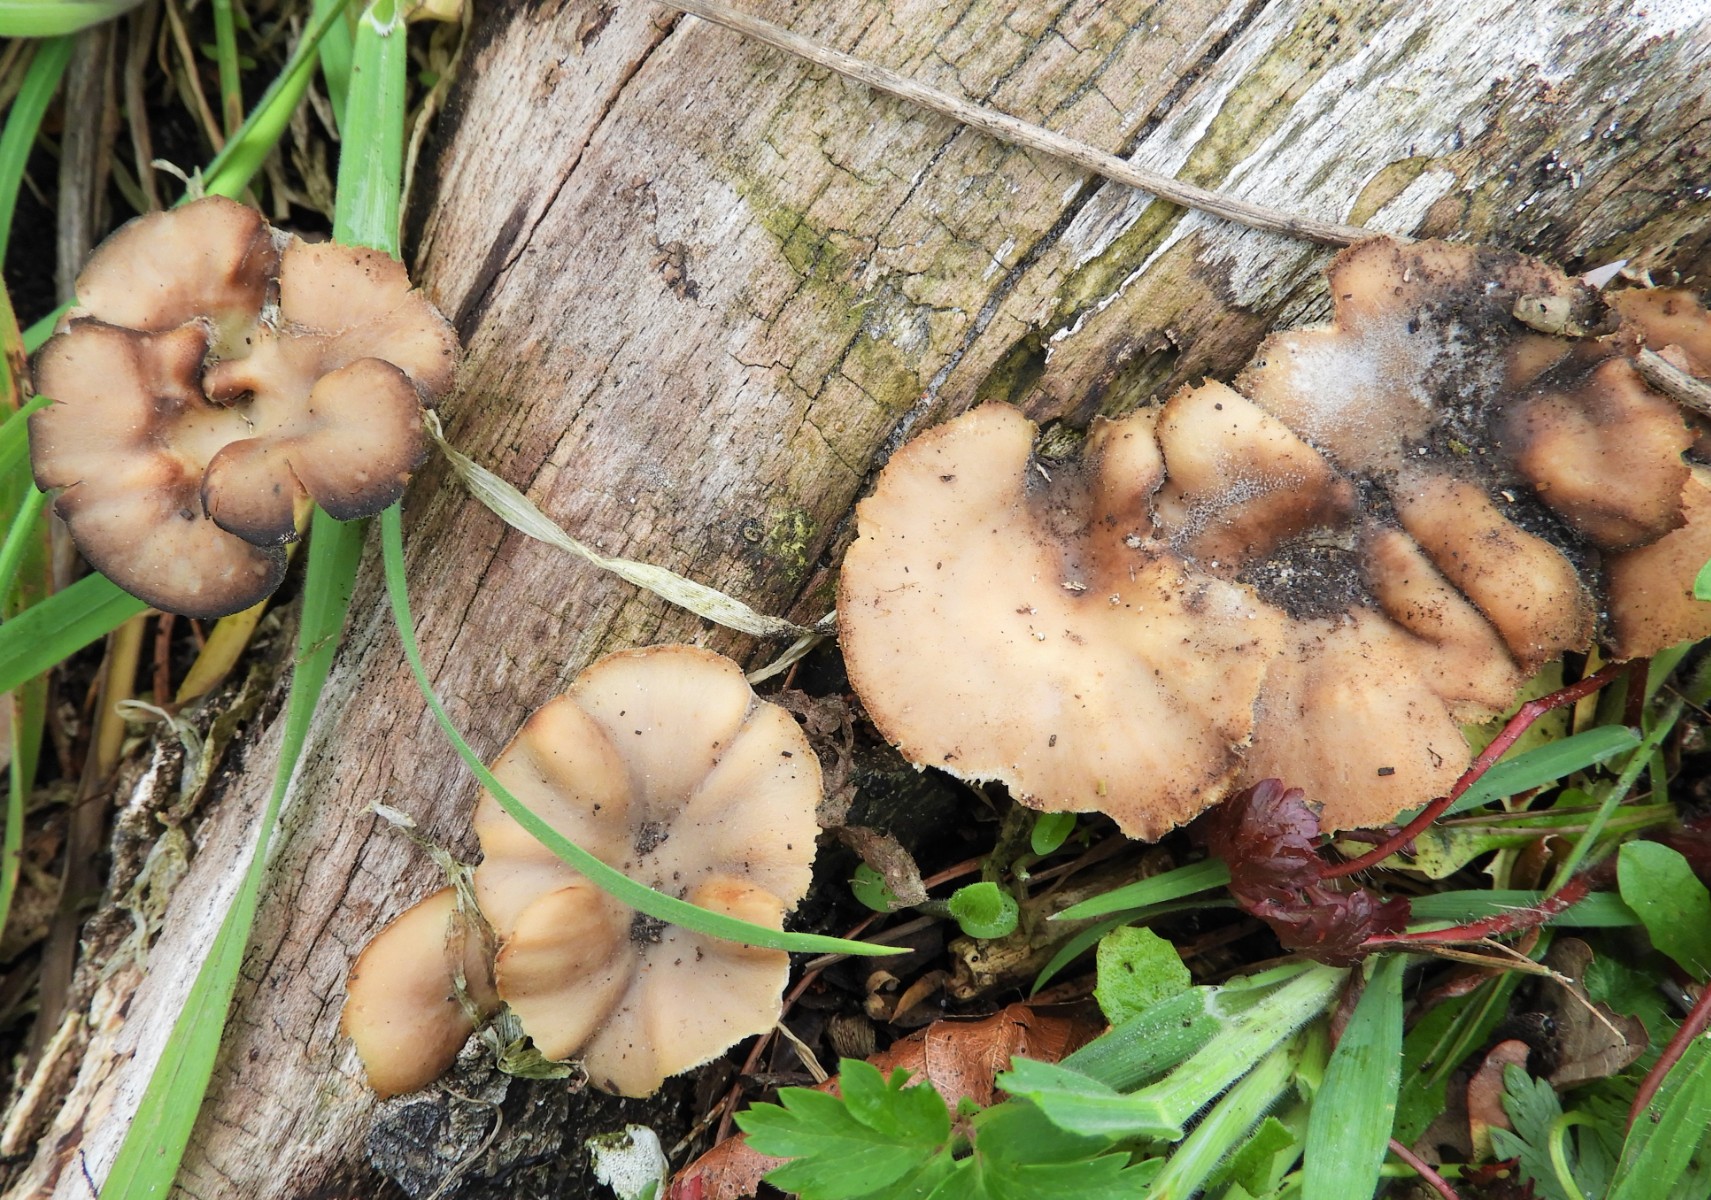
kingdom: Fungi
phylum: Basidiomycota
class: Agaricomycetes
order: Polyporales
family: Polyporaceae
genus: Lentinus
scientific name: Lentinus brumalis
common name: vinter-stilkporesvamp
